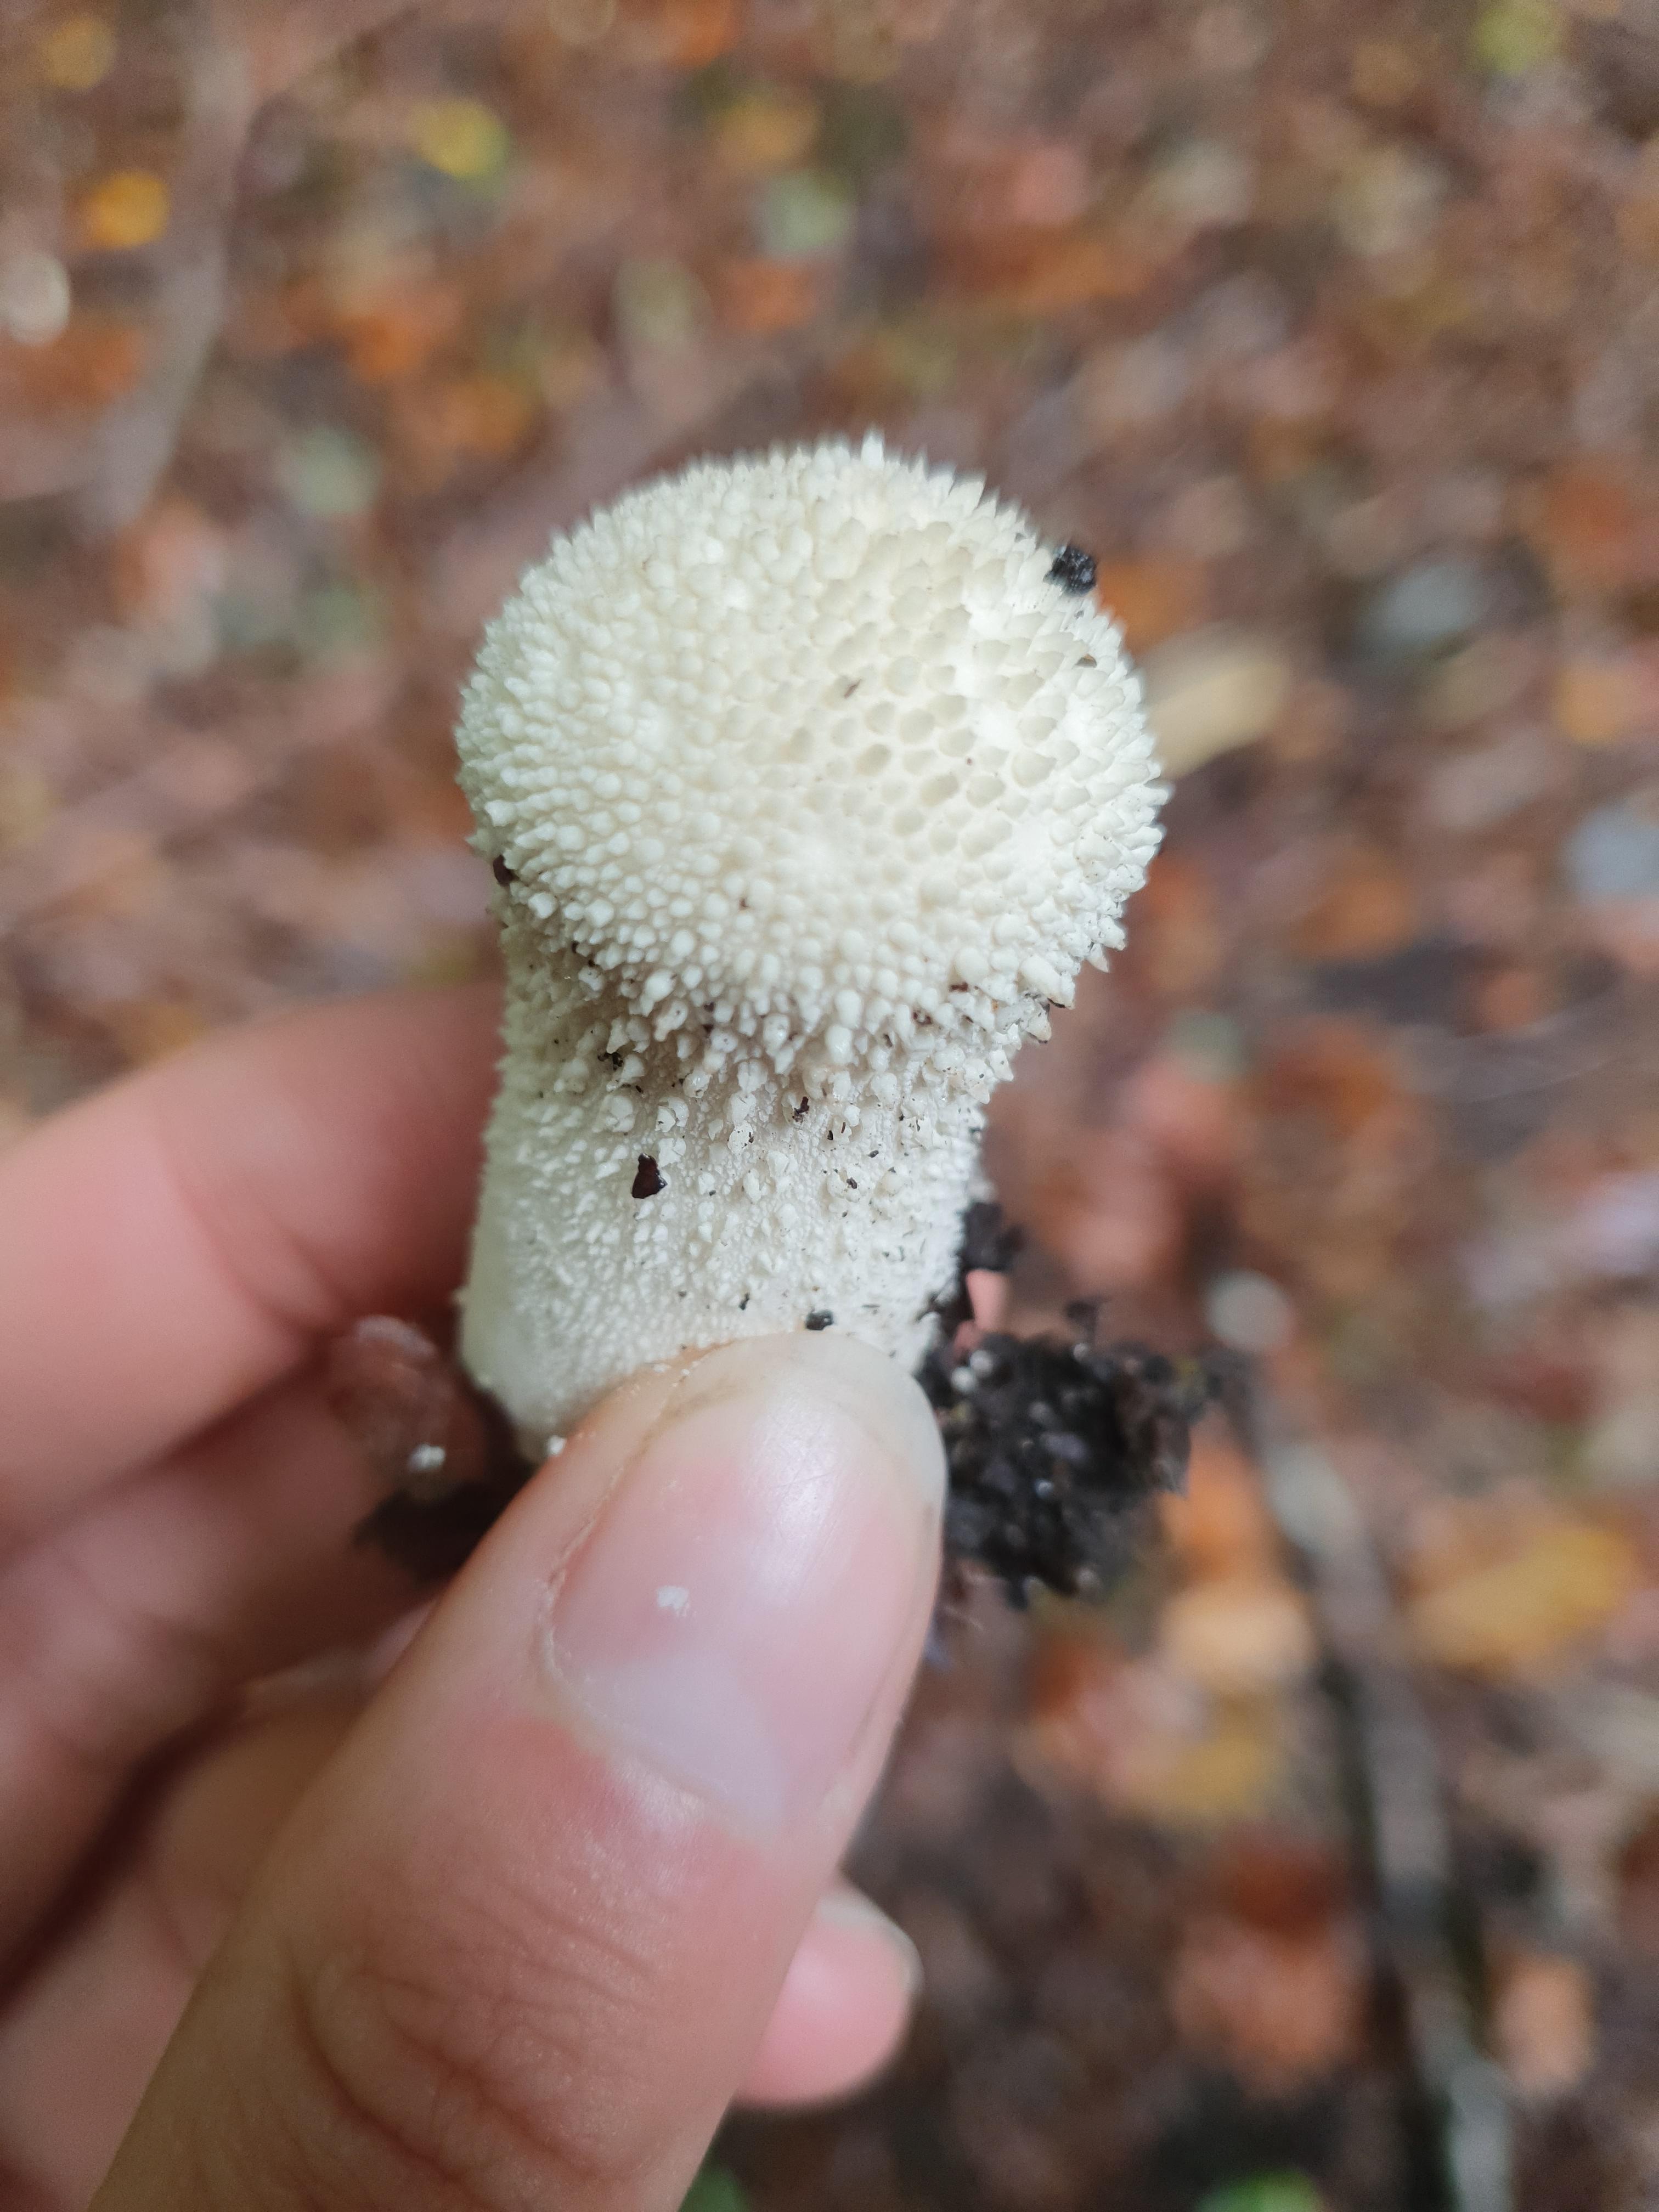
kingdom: Fungi
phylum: Basidiomycota
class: Agaricomycetes
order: Agaricales
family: Lycoperdaceae
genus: Lycoperdon
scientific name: Lycoperdon perlatum
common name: krystal-støvbold
